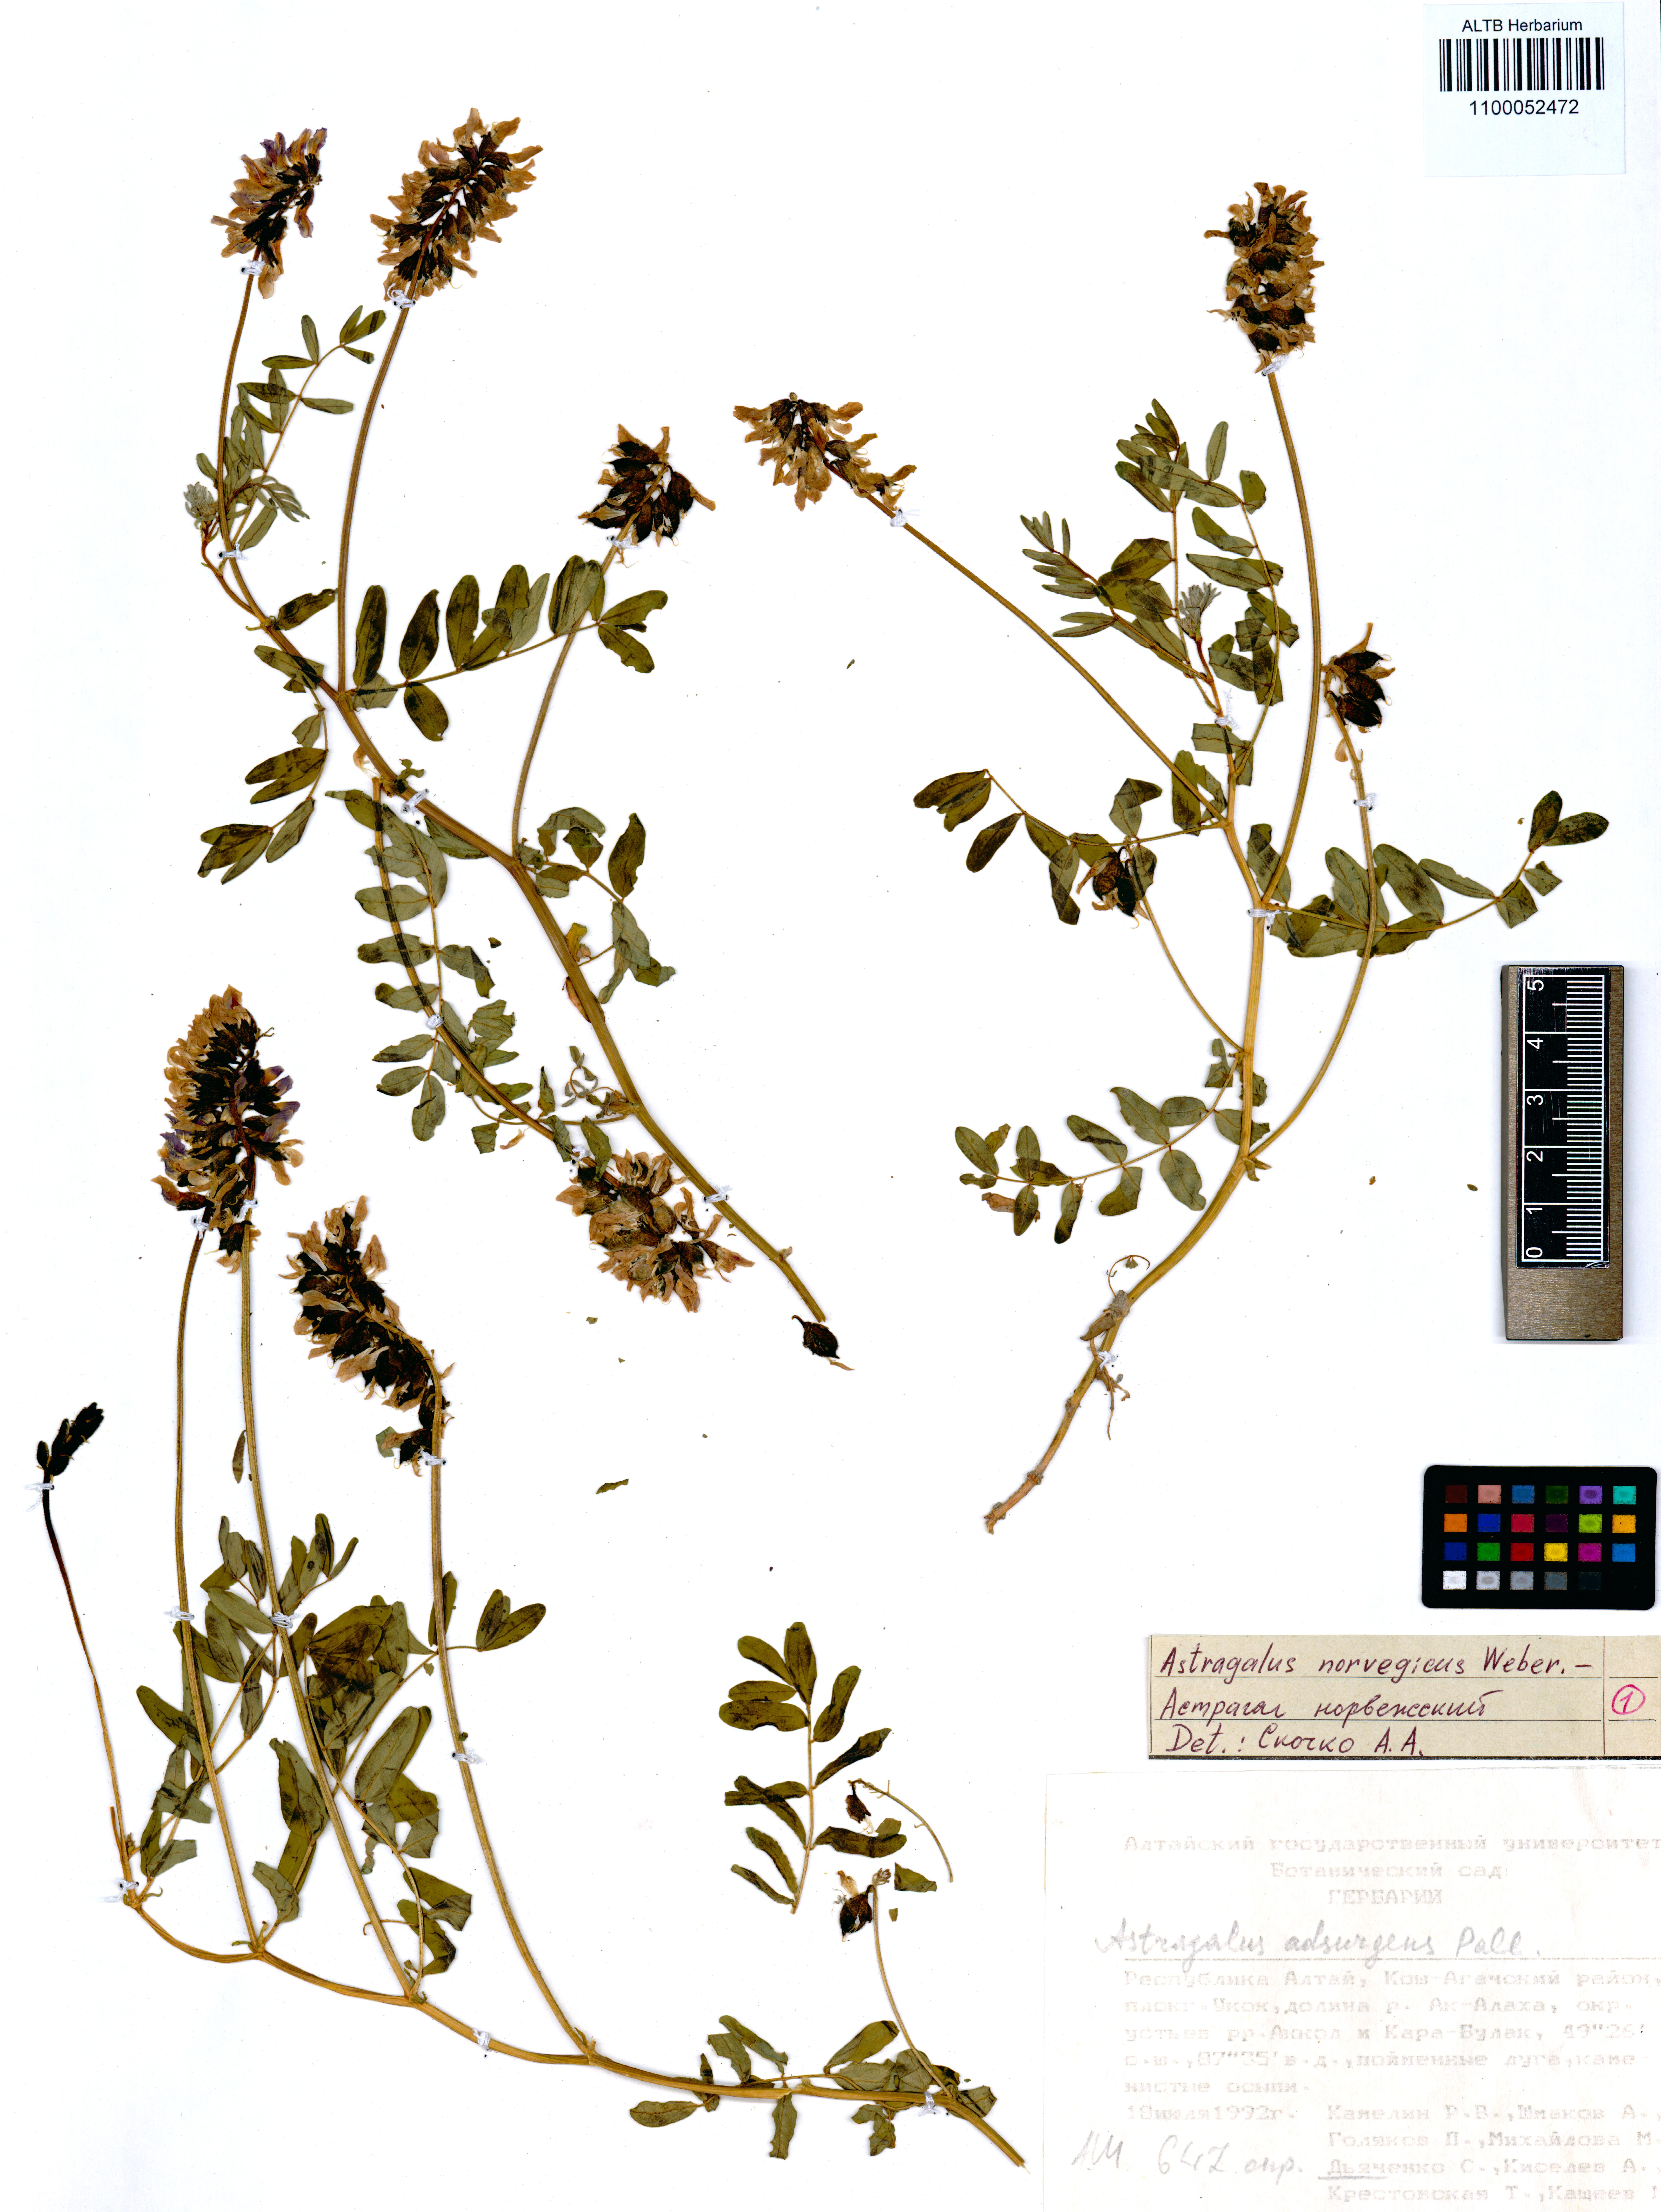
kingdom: Plantae
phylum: Tracheophyta
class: Magnoliopsida
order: Fabales
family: Fabaceae
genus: Astragalus
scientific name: Astragalus norvegicus
